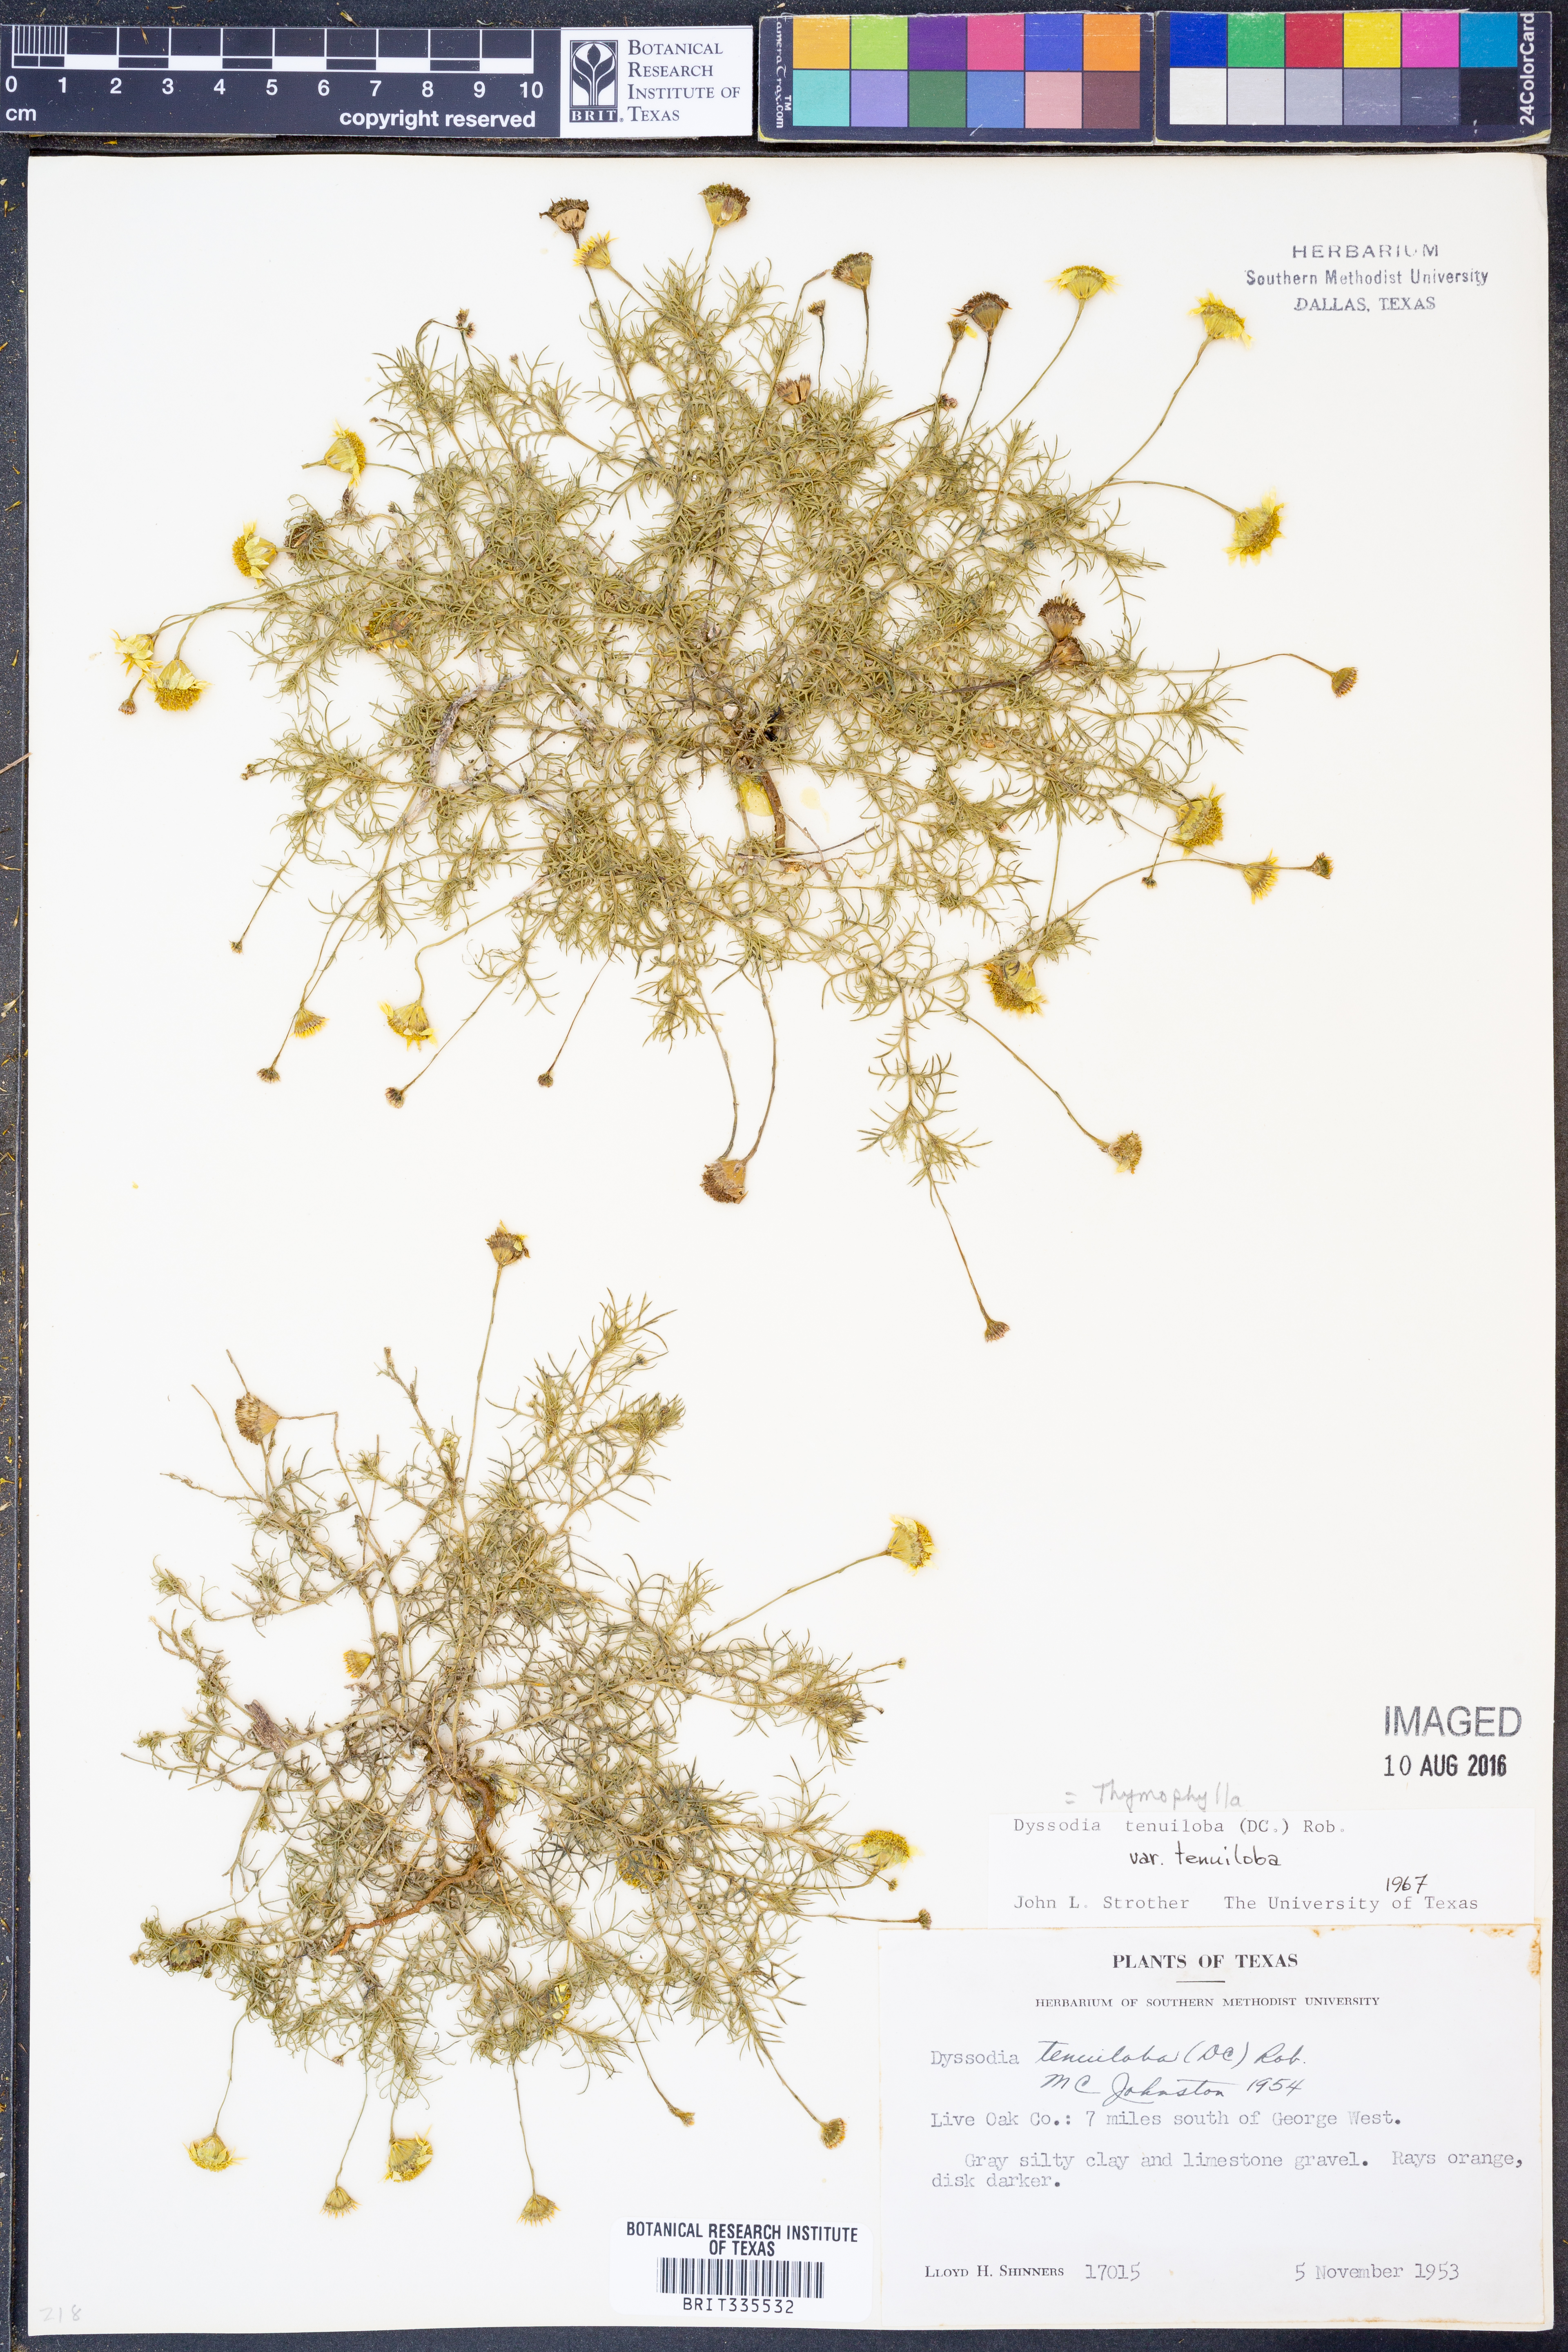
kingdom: Plantae
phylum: Tracheophyta
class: Magnoliopsida
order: Asterales
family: Asteraceae
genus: Thymophylla
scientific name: Thymophylla tenuiloba
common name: Dahlberg's daisy
